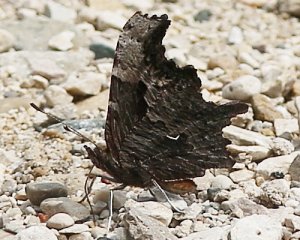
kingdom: Animalia
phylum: Arthropoda
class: Insecta
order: Lepidoptera
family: Nymphalidae
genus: Polygonia
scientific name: Polygonia progne
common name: Gray Comma
